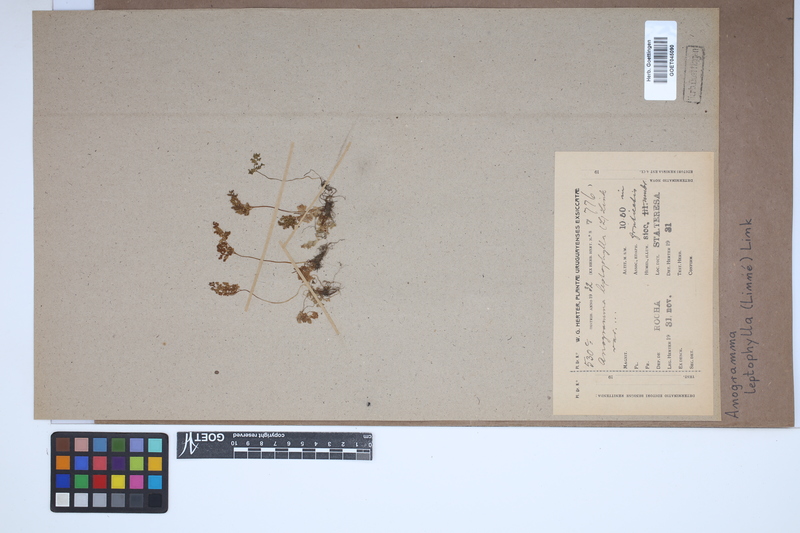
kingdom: Plantae
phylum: Tracheophyta
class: Polypodiopsida
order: Polypodiales
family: Pteridaceae
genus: Anogramma
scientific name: Anogramma leptophylla
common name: Jersey fern
